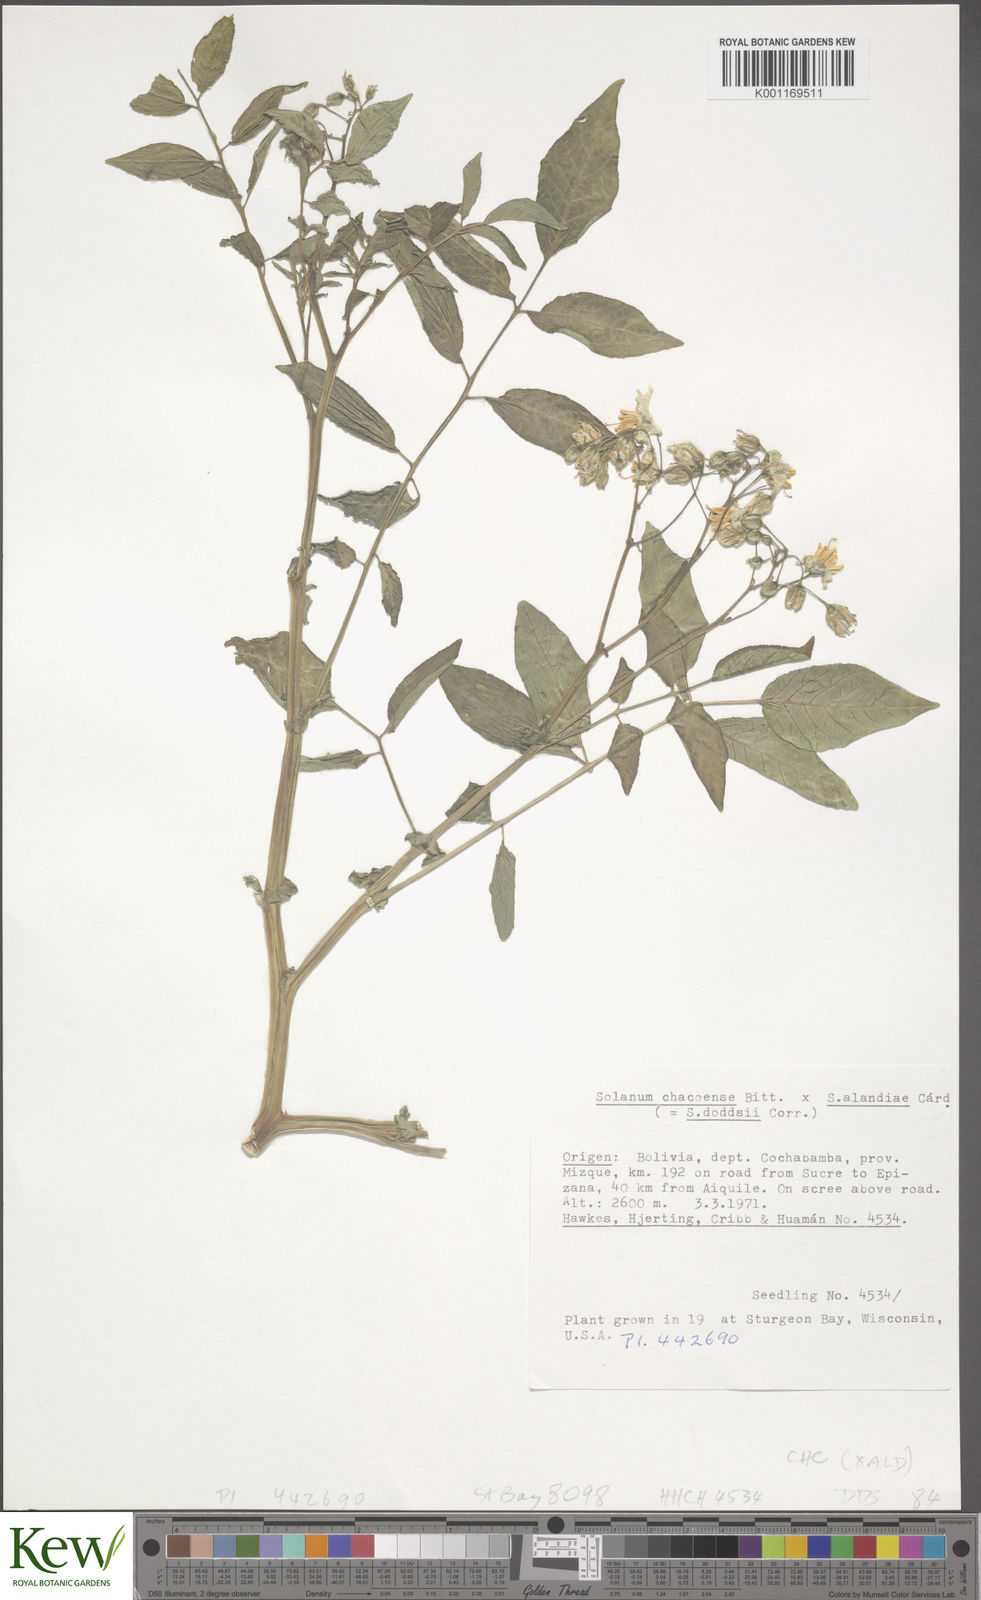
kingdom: Plantae
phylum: Tracheophyta
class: Magnoliopsida
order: Solanales
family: Solanaceae
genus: Solanum
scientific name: Solanum doddsii
